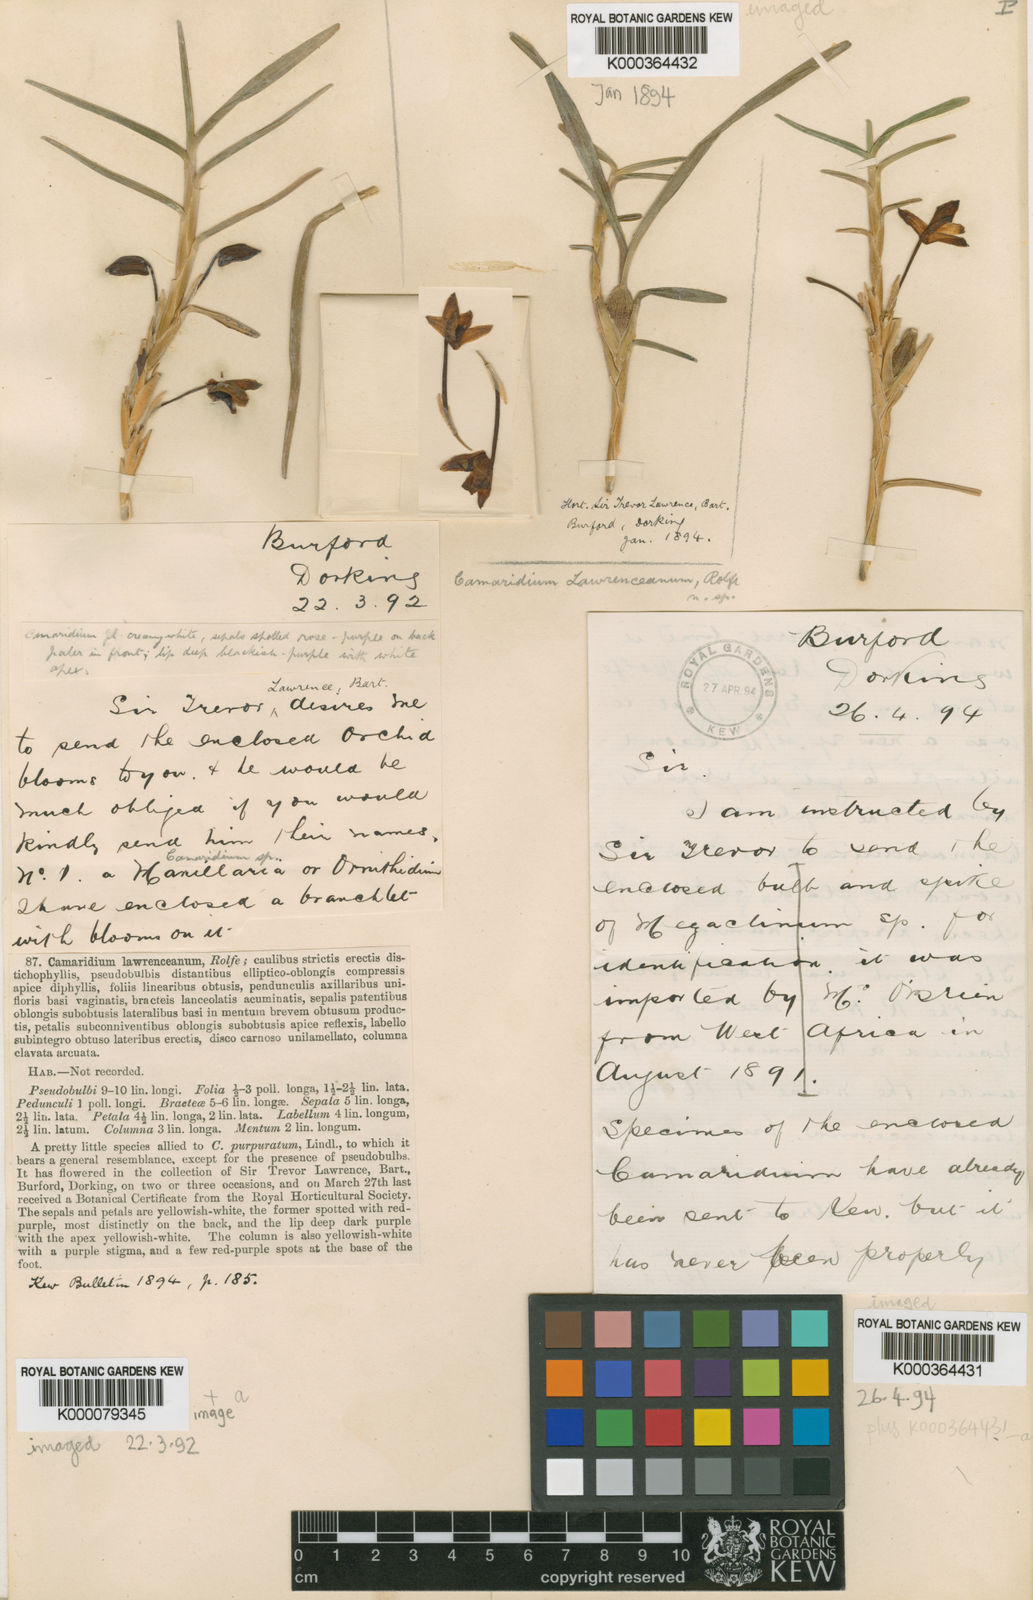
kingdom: Plantae
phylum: Tracheophyta
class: Liliopsida
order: Asparagales
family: Orchidaceae
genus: Maxillaria
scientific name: Maxillaria lawrenceana
